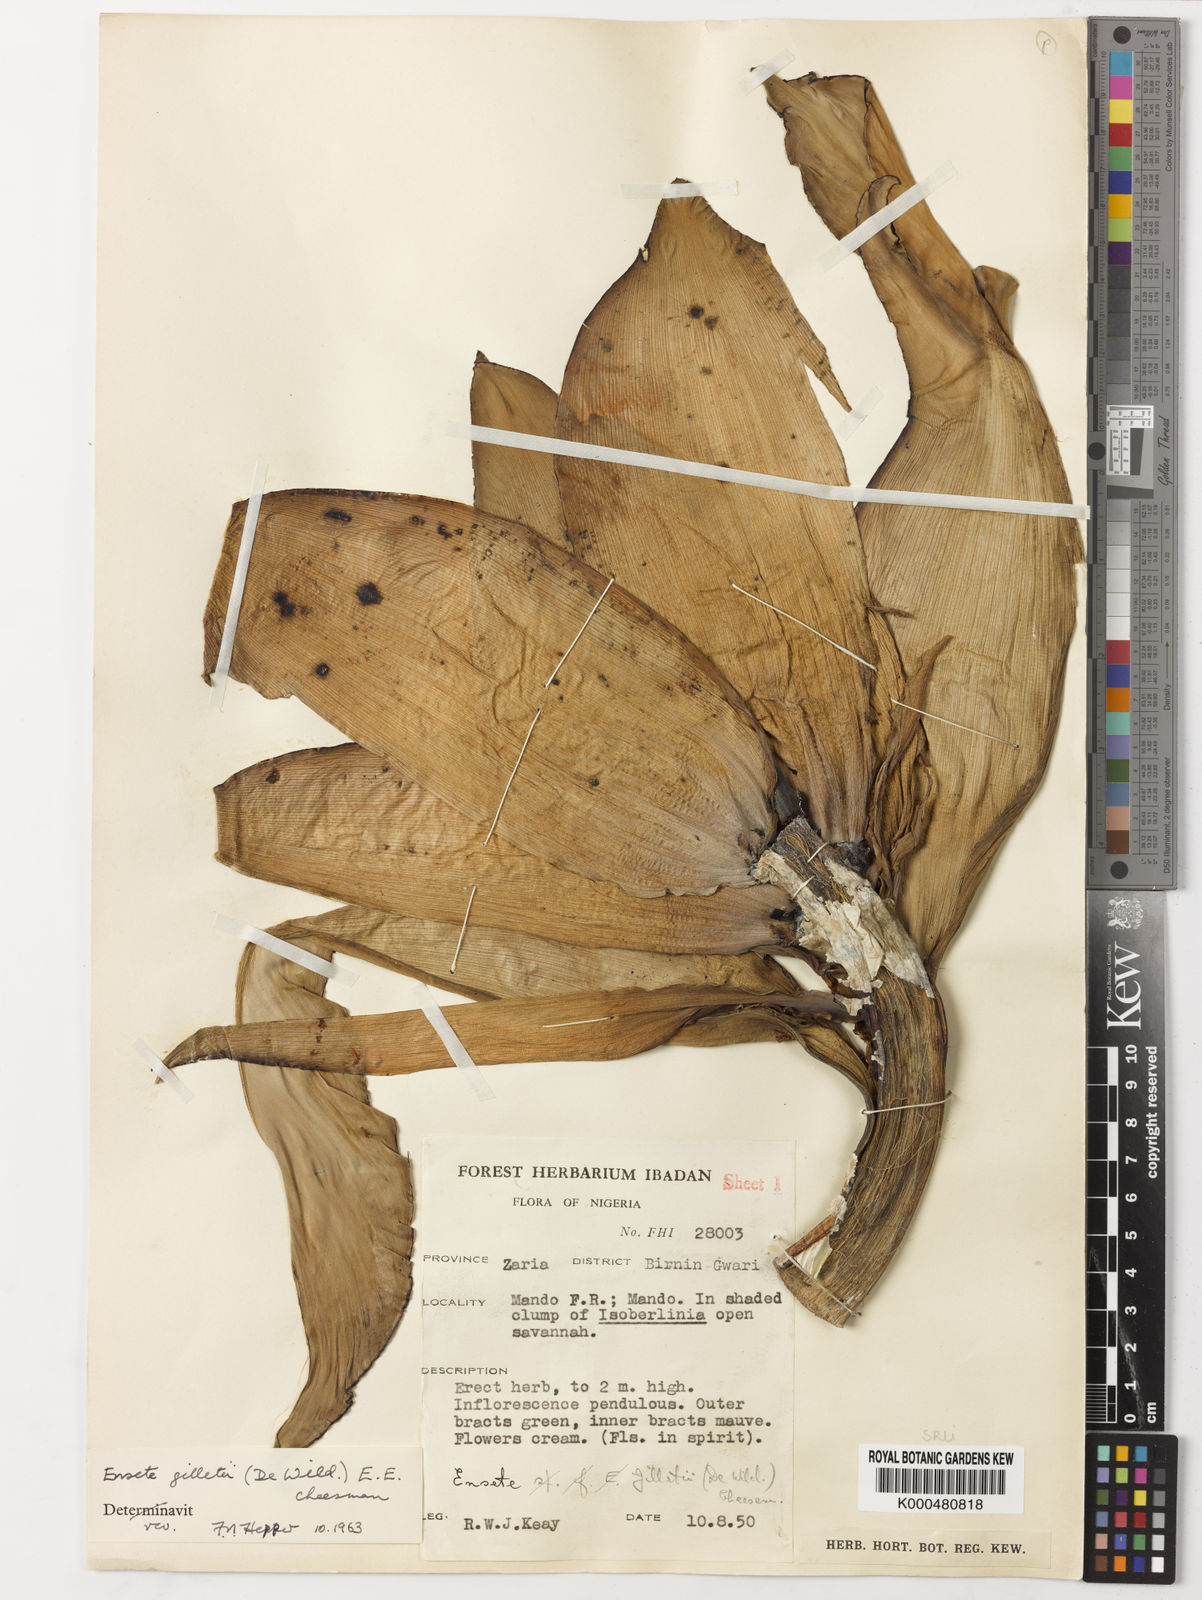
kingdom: Plantae
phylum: Tracheophyta
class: Liliopsida
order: Zingiberales
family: Musaceae
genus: Ensete
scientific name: Ensete livingstonianum
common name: Livingston's banana
